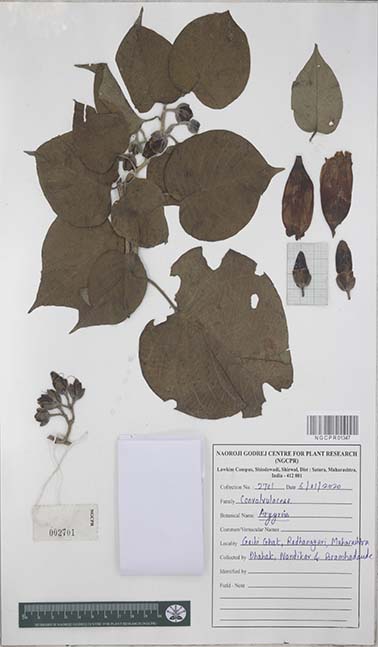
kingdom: Plantae
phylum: Tracheophyta
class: Magnoliopsida
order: Solanales
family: Convolvulaceae
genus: Argyreia
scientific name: Argyreia
